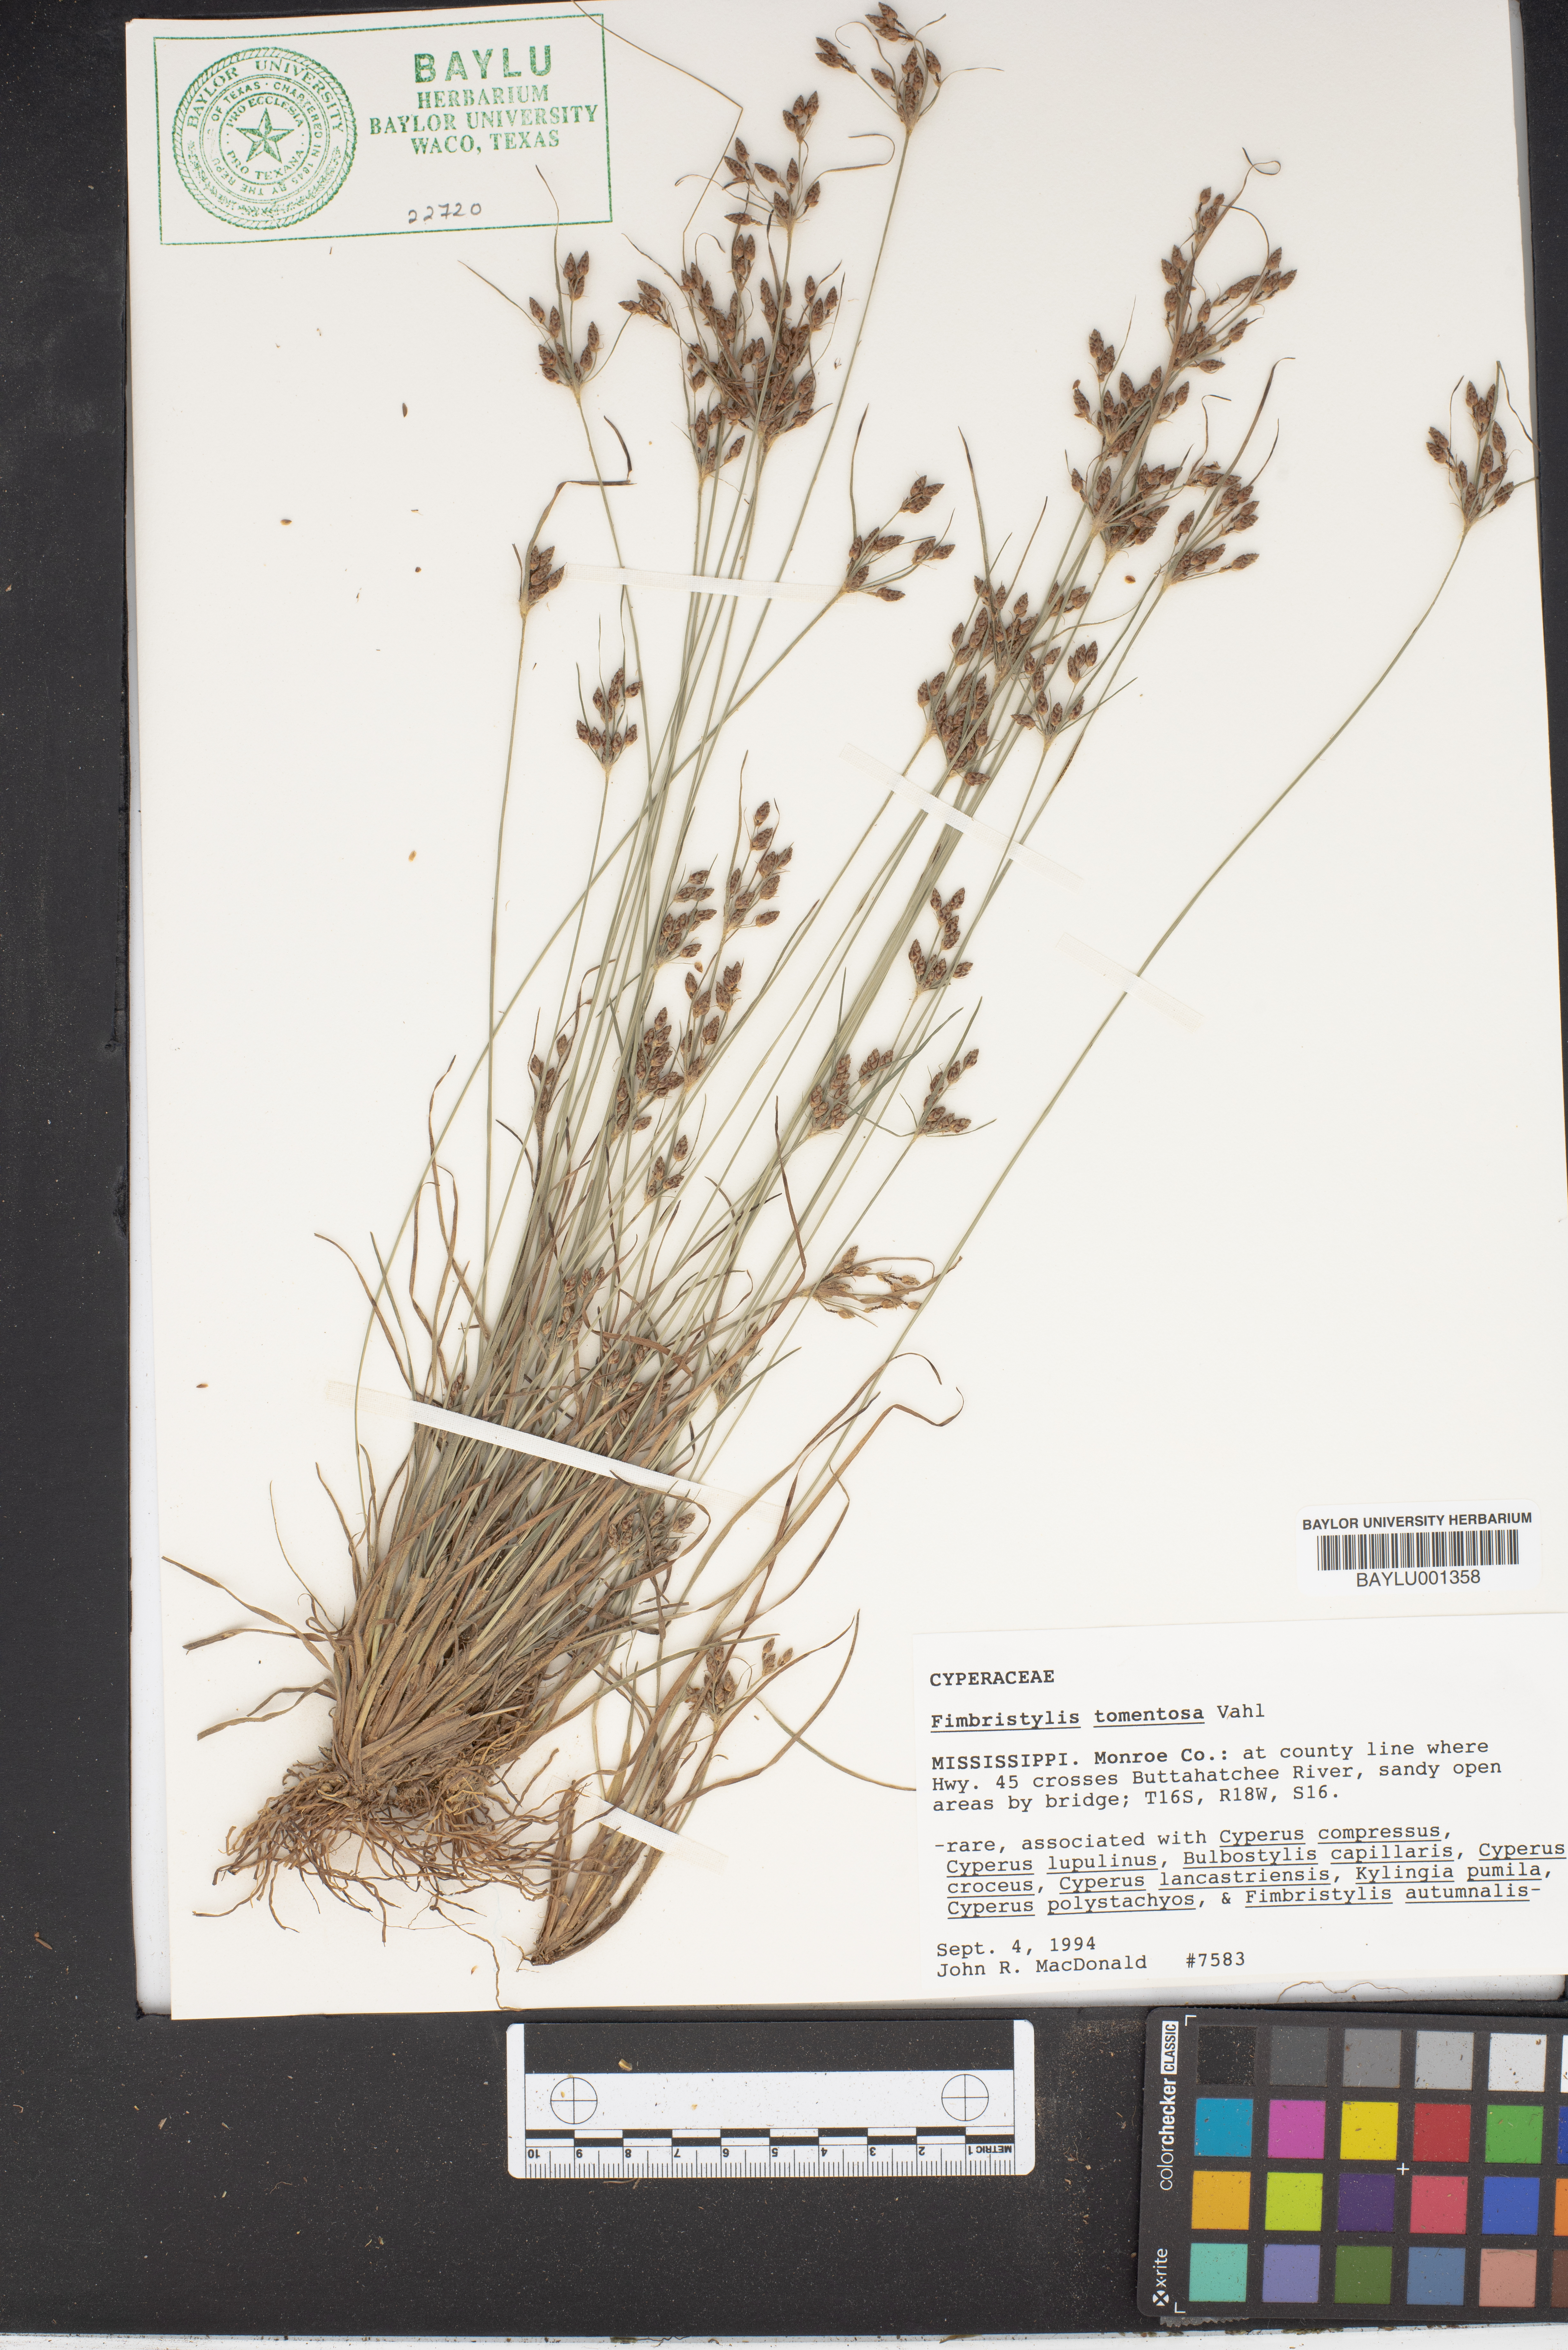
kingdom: Plantae
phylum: Tracheophyta
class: Liliopsida
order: Poales
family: Cyperaceae
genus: Fimbristylis
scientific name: Fimbristylis dichotoma
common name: Forked fimbry
